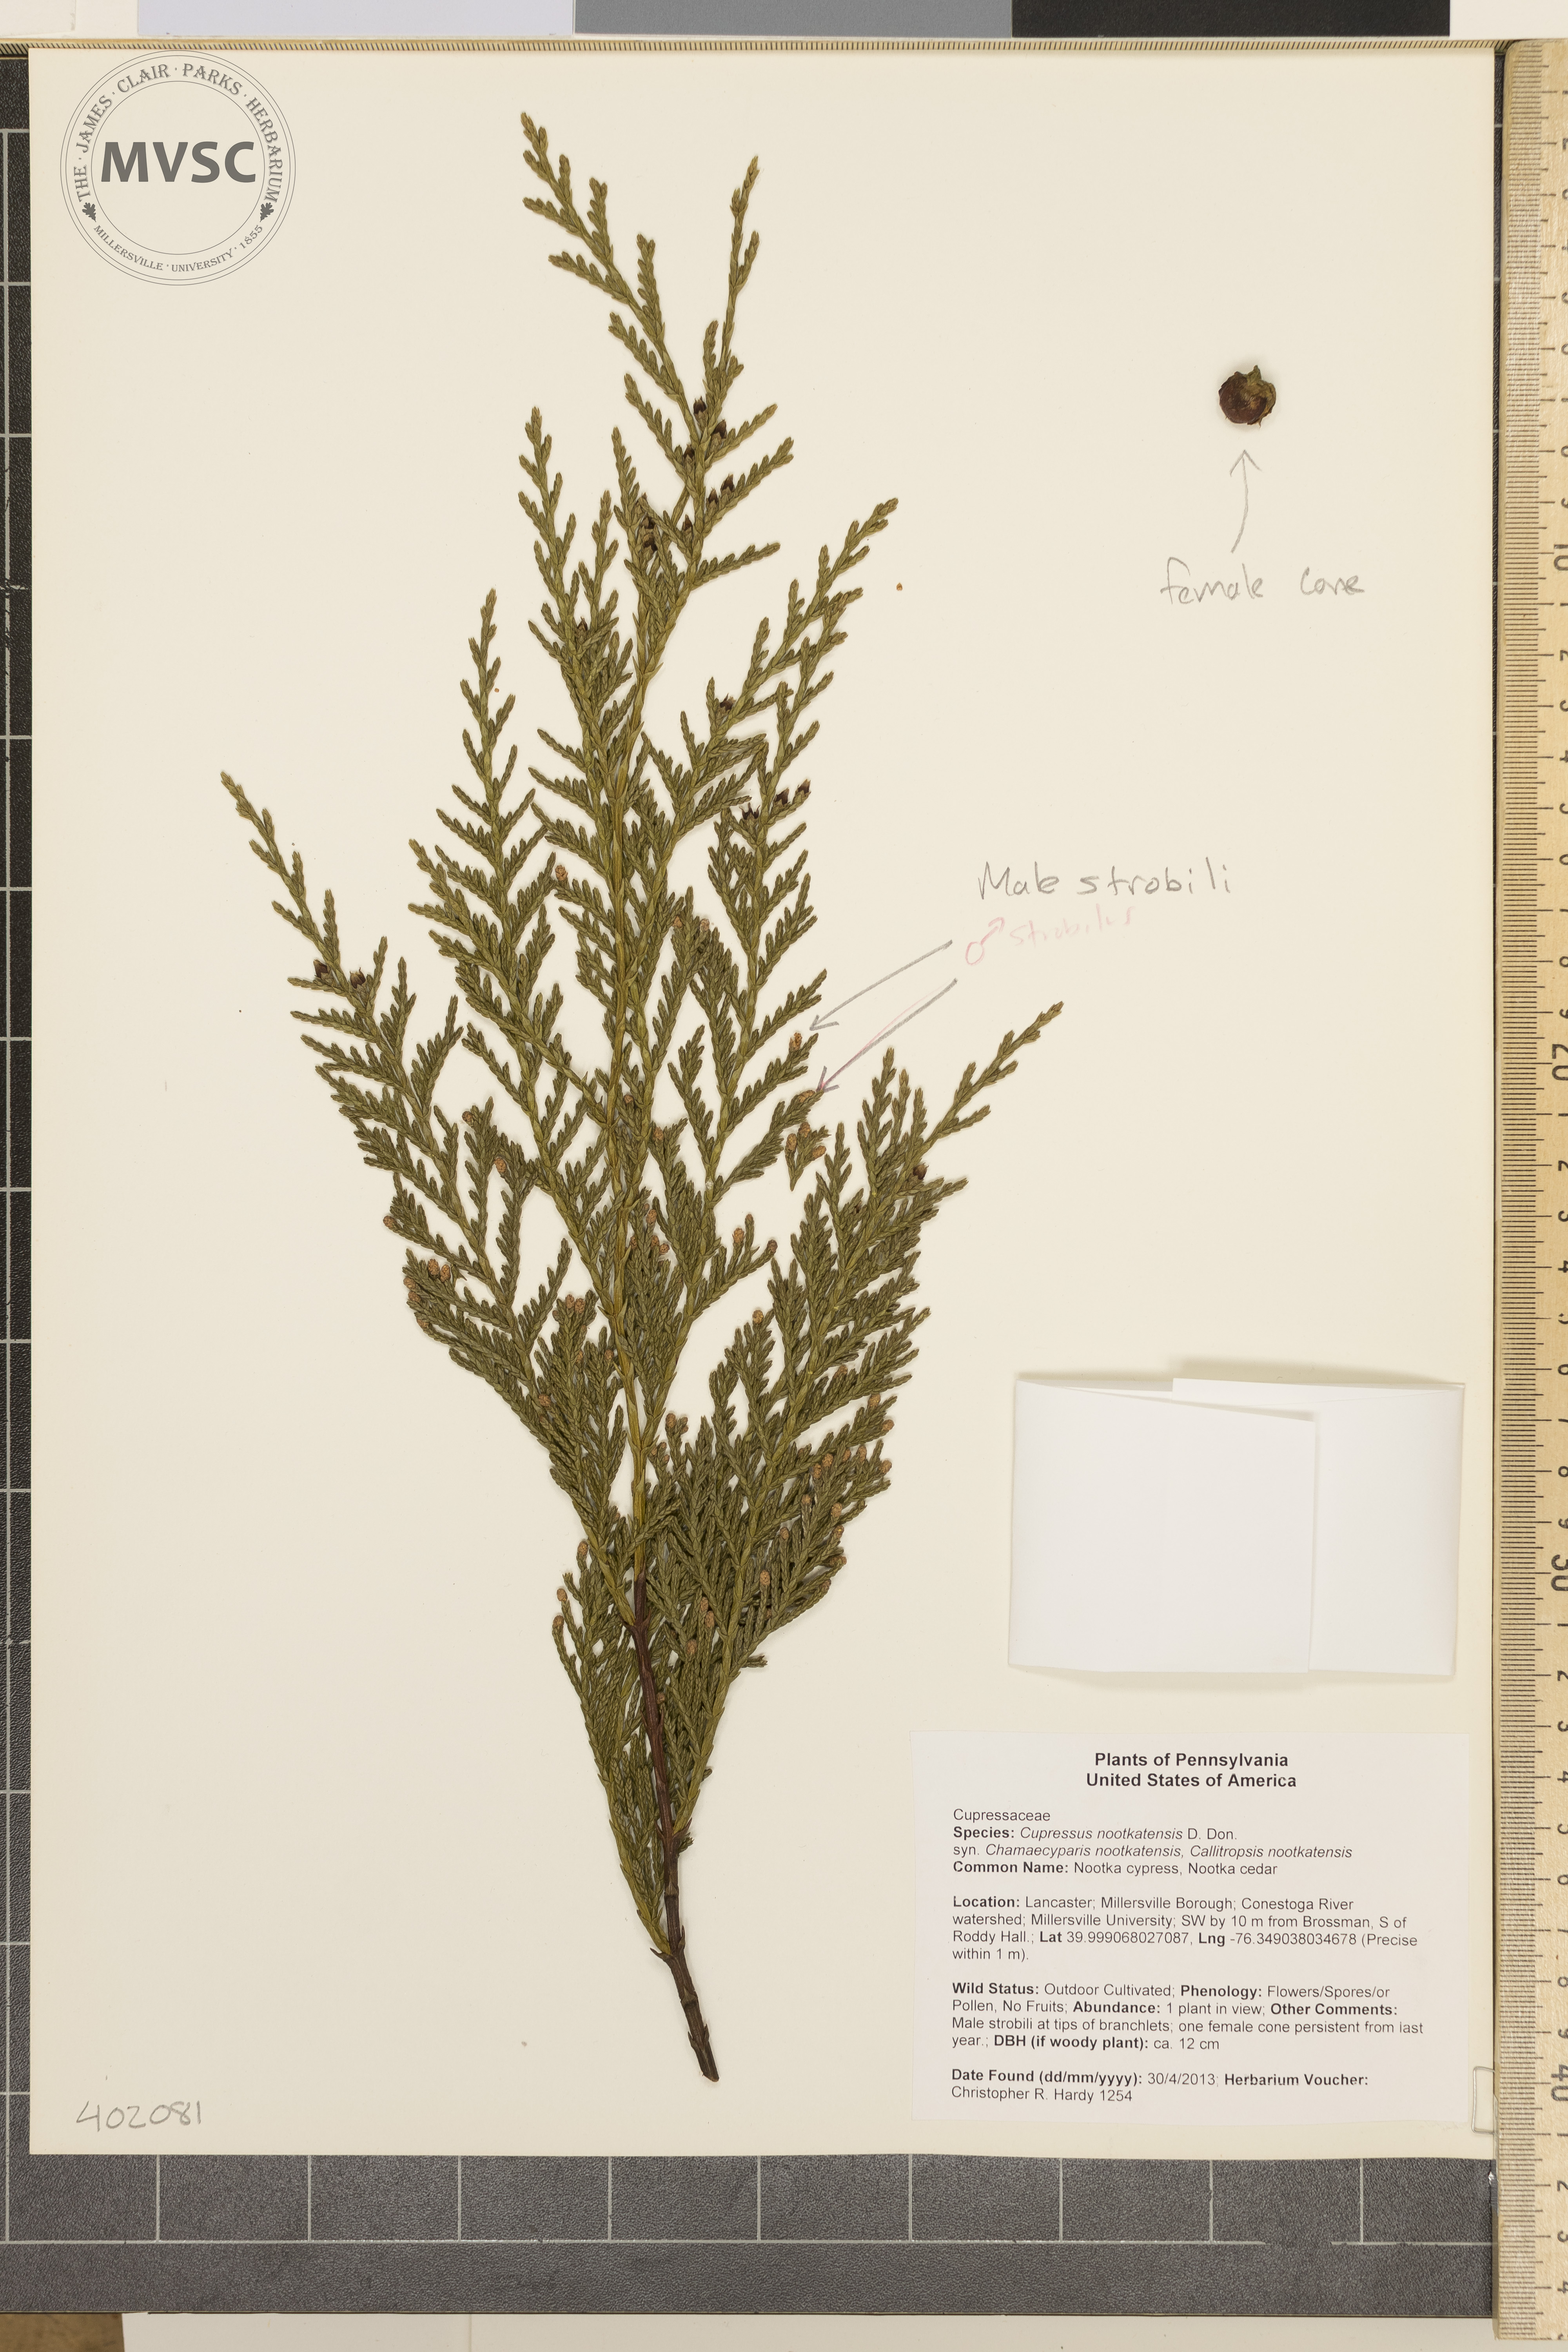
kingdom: Plantae
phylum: Tracheophyta
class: Pinopsida
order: Pinales
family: Cupressaceae
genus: Xanthocyparis
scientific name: Xanthocyparis nootkatensis
